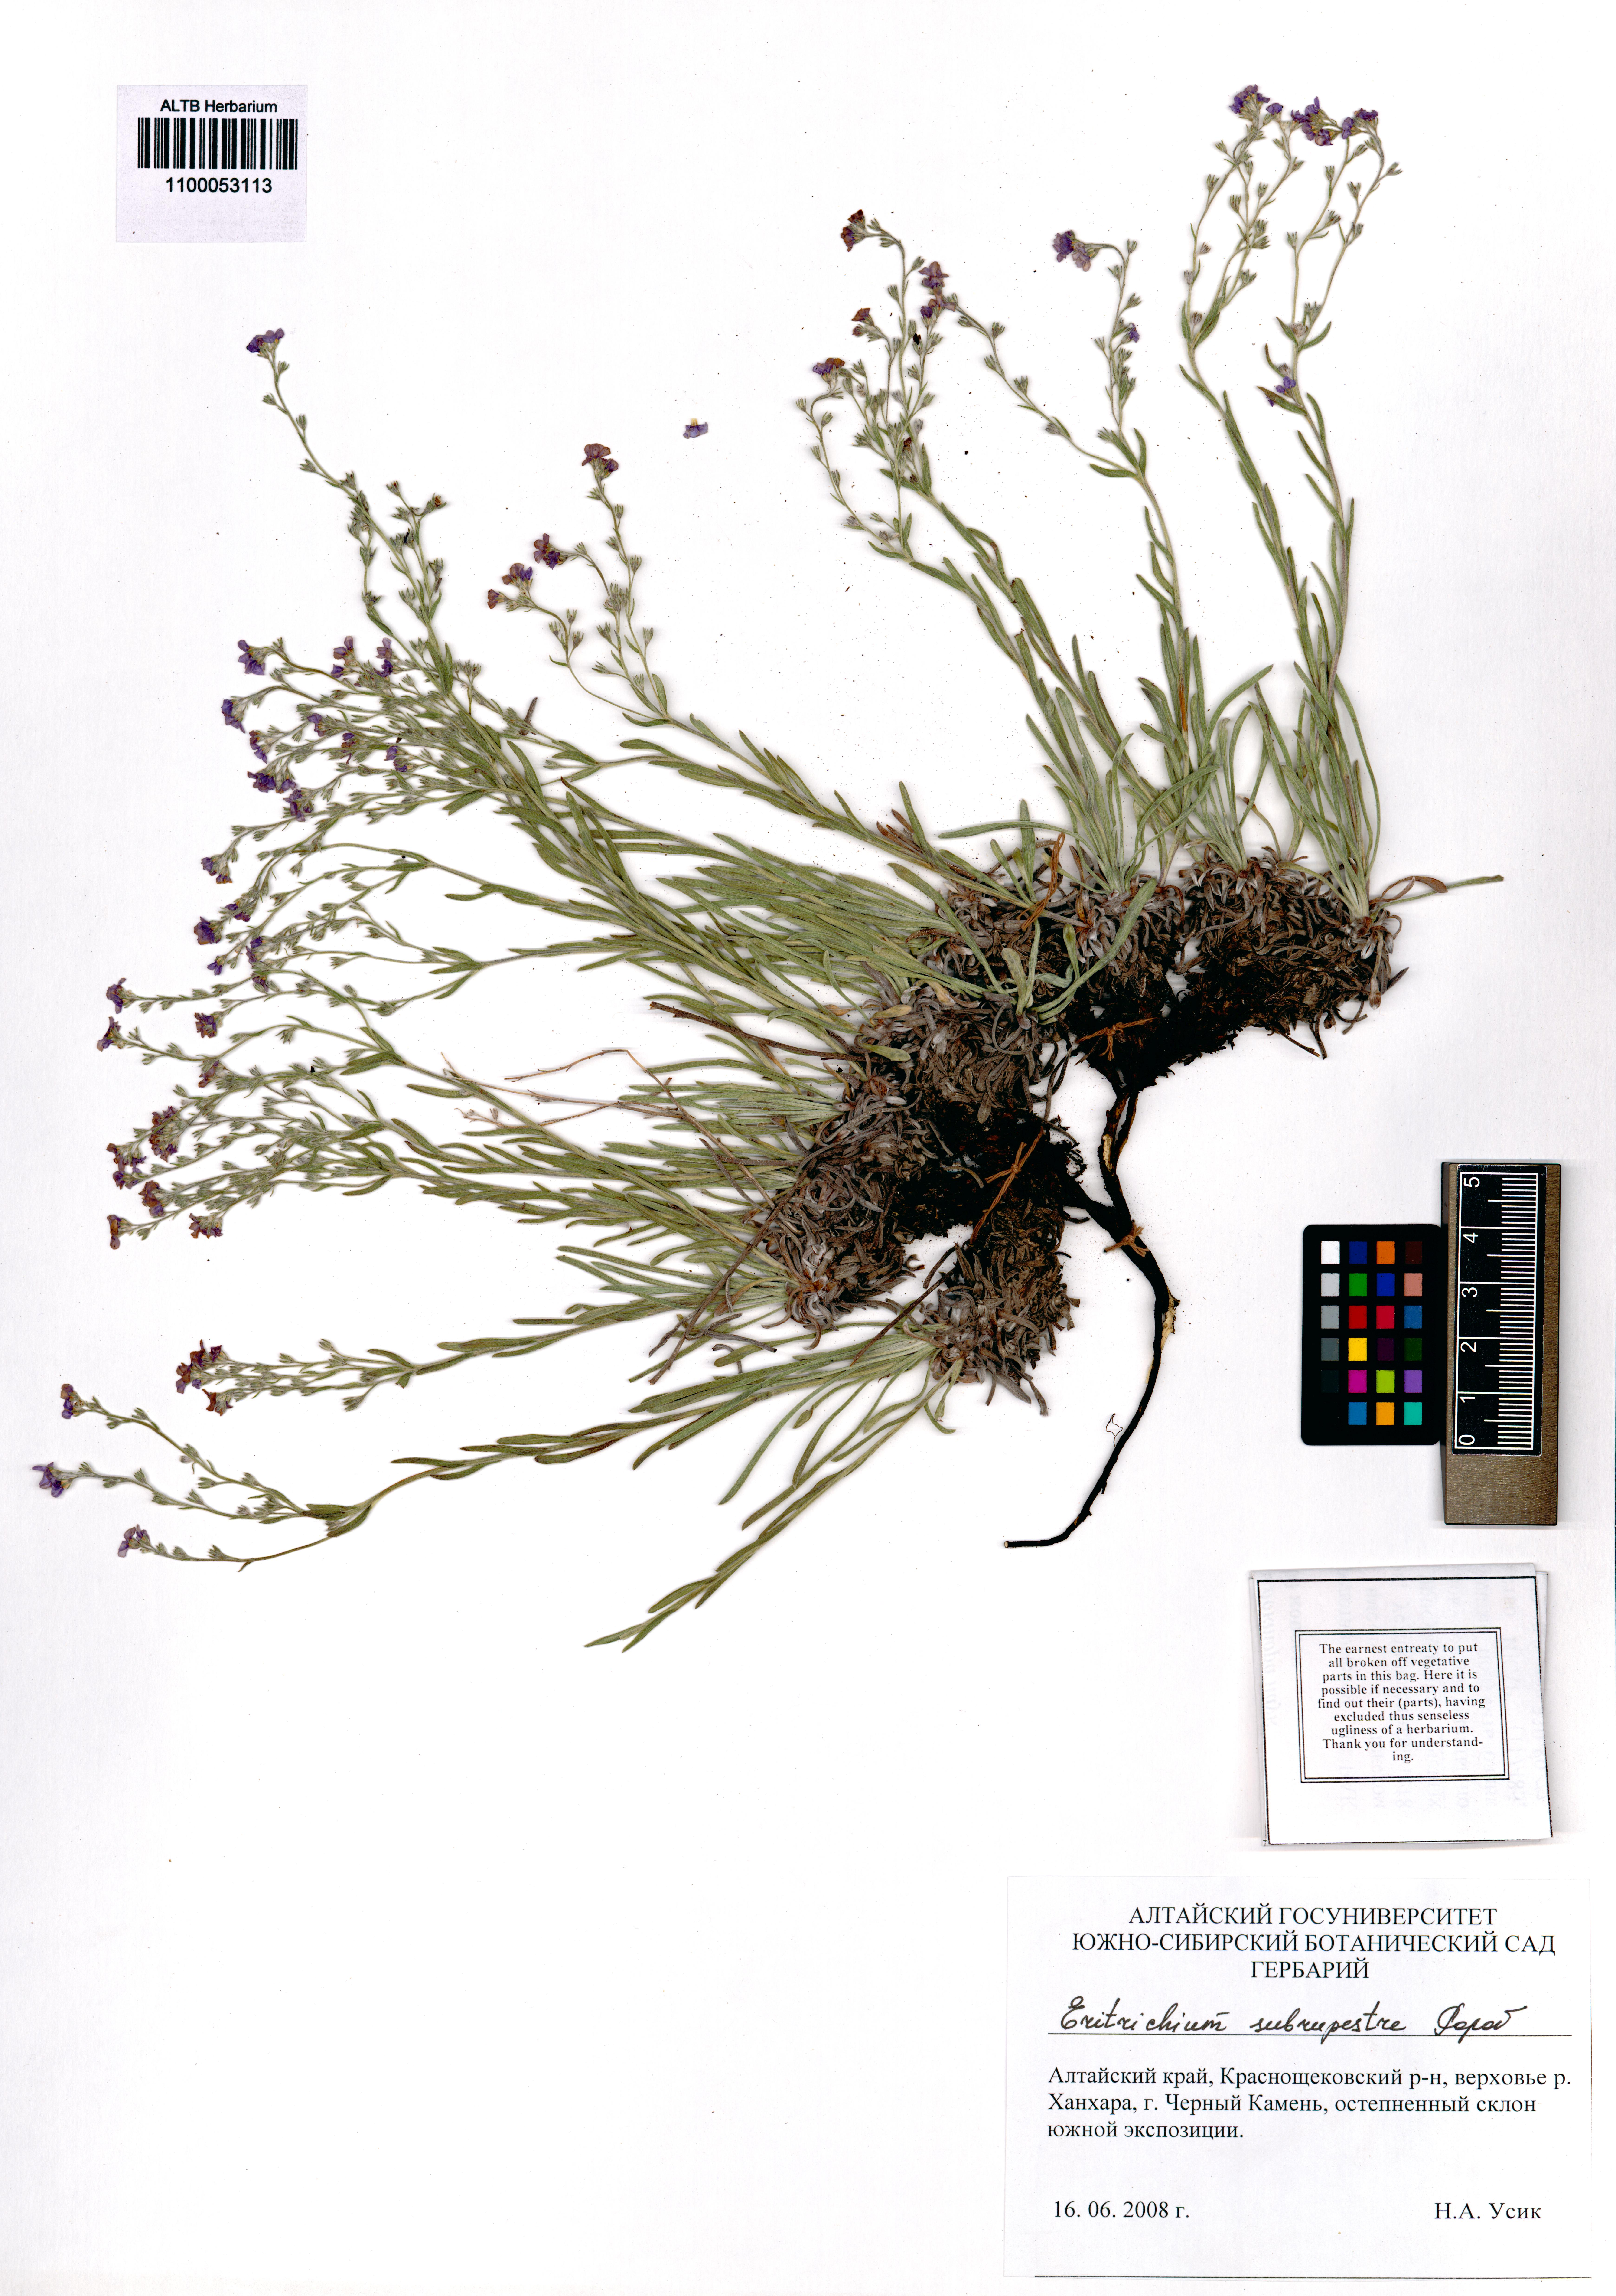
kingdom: Plantae
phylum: Tracheophyta
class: Magnoliopsida
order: Boraginales
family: Boraginaceae
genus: Eritrichium
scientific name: Eritrichium pauciflorum
